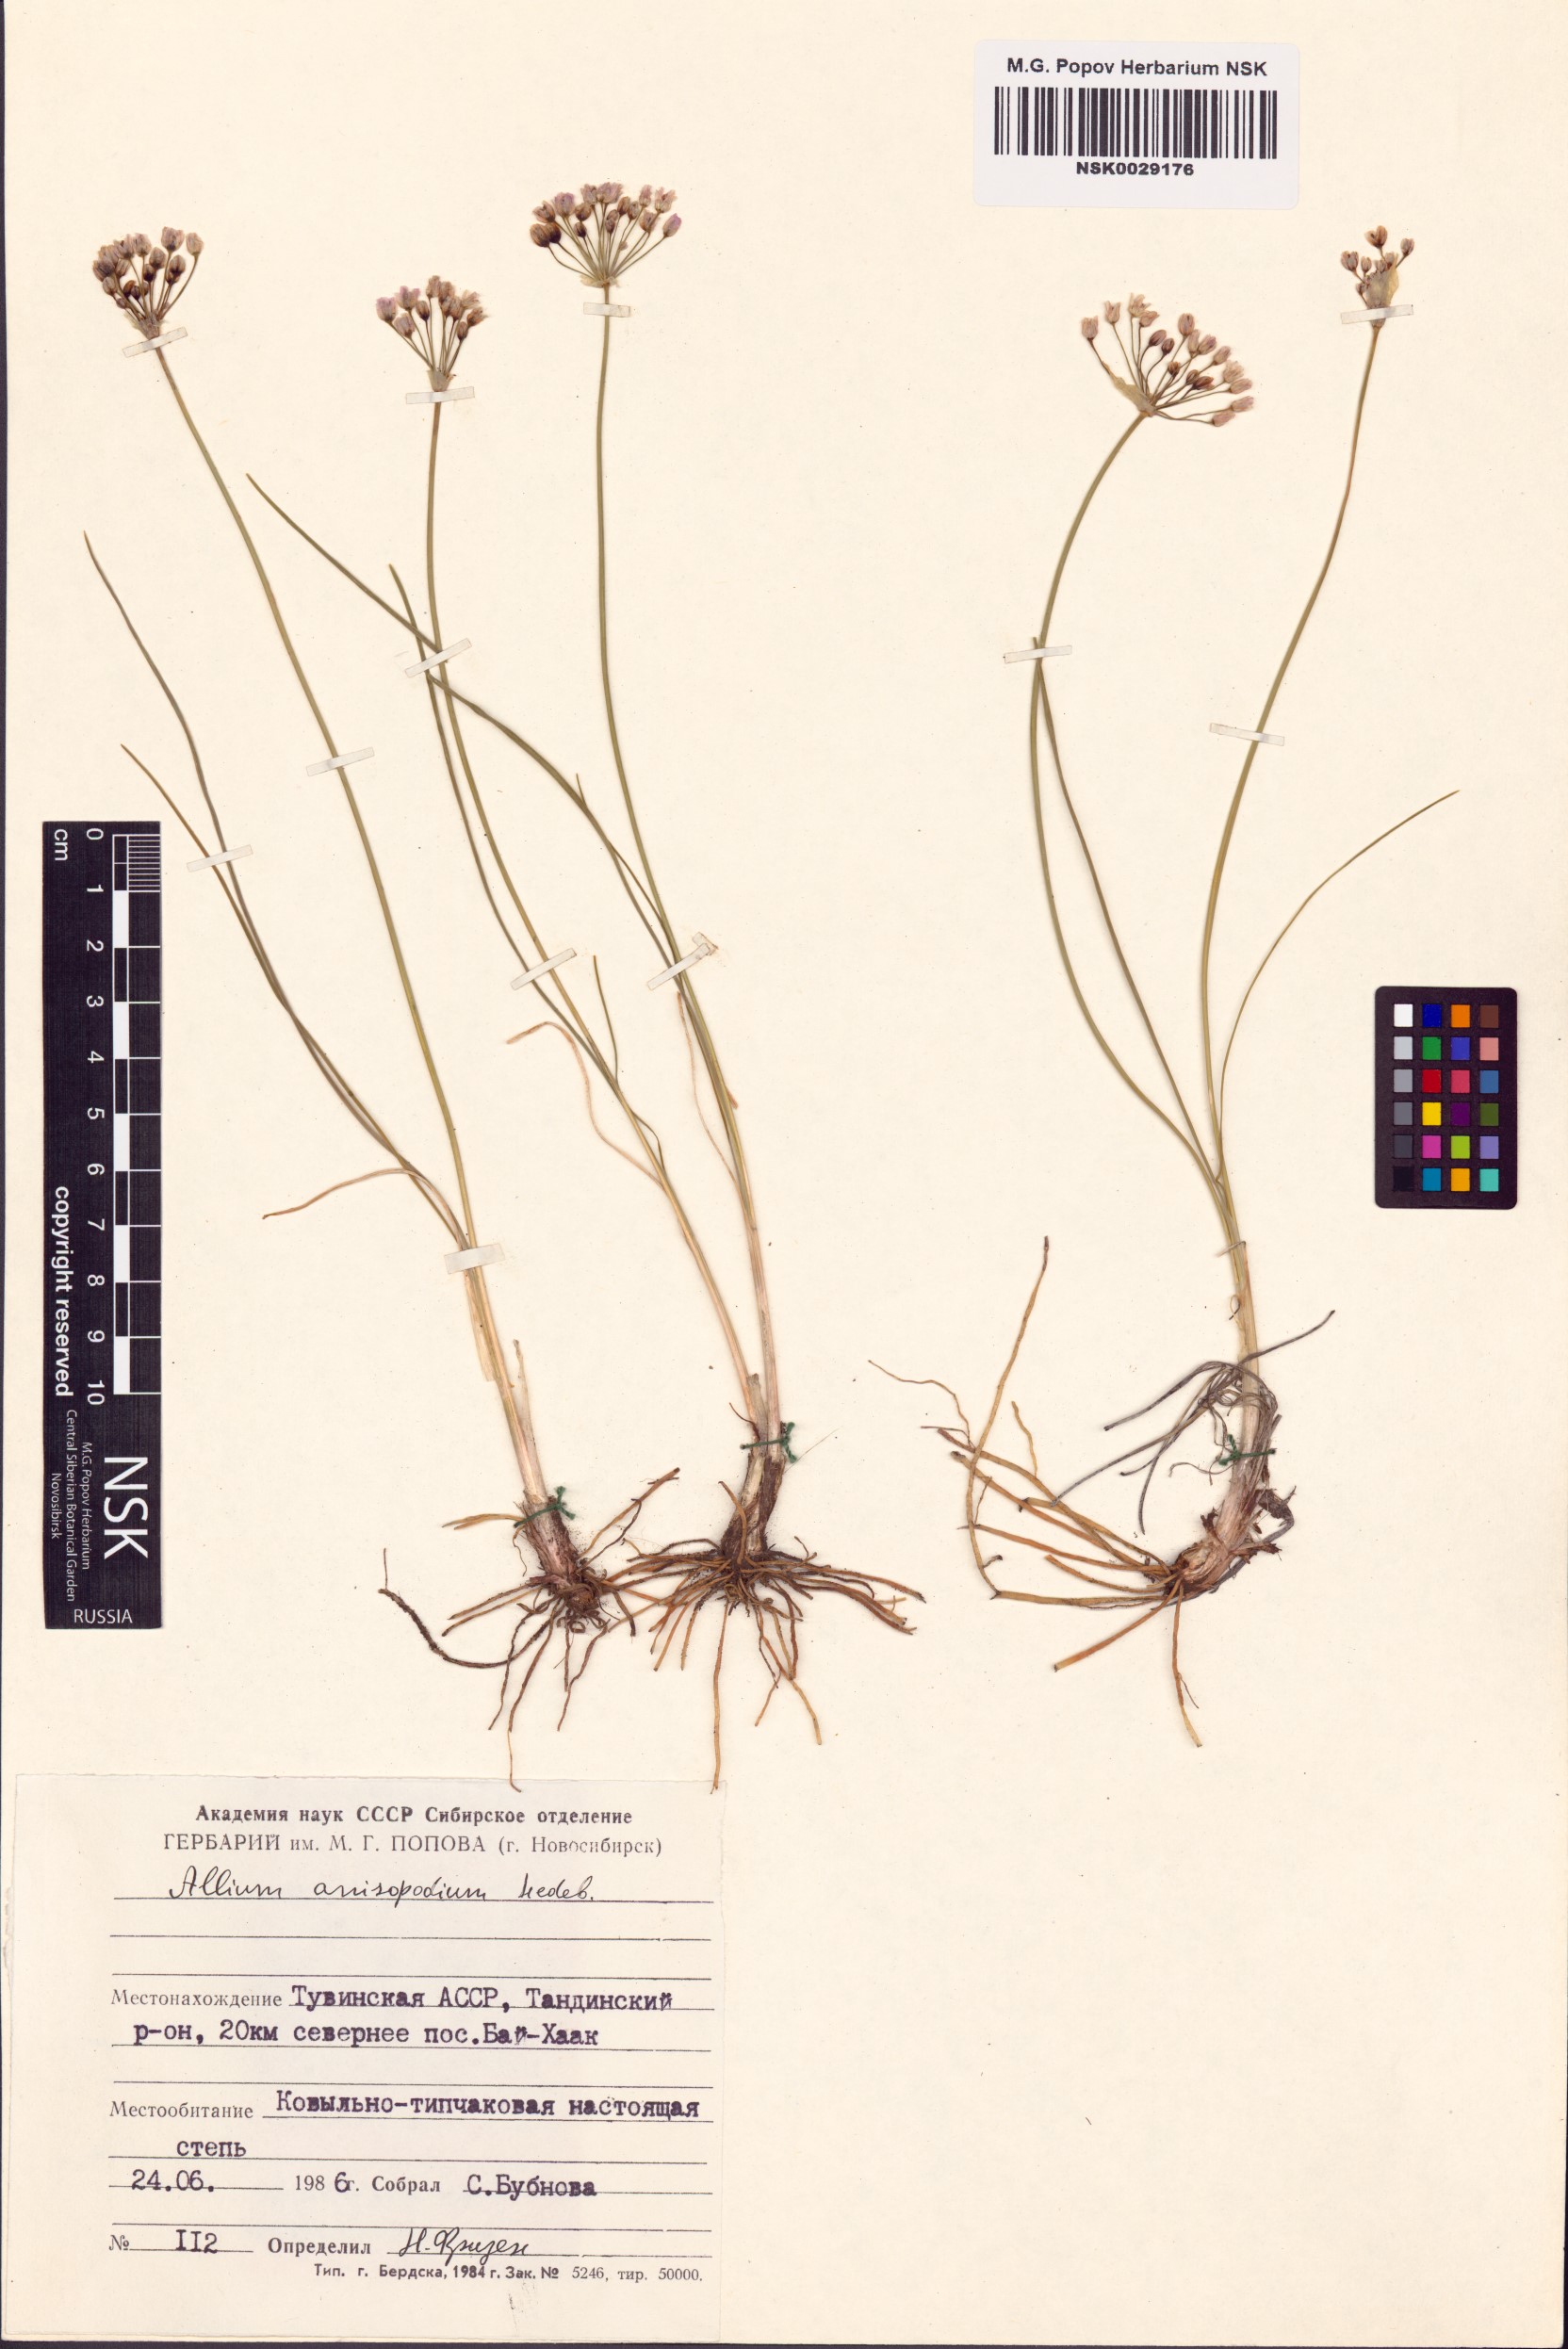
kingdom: Plantae
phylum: Tracheophyta
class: Liliopsida
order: Asparagales
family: Amaryllidaceae
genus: Allium
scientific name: Allium anisopodium
